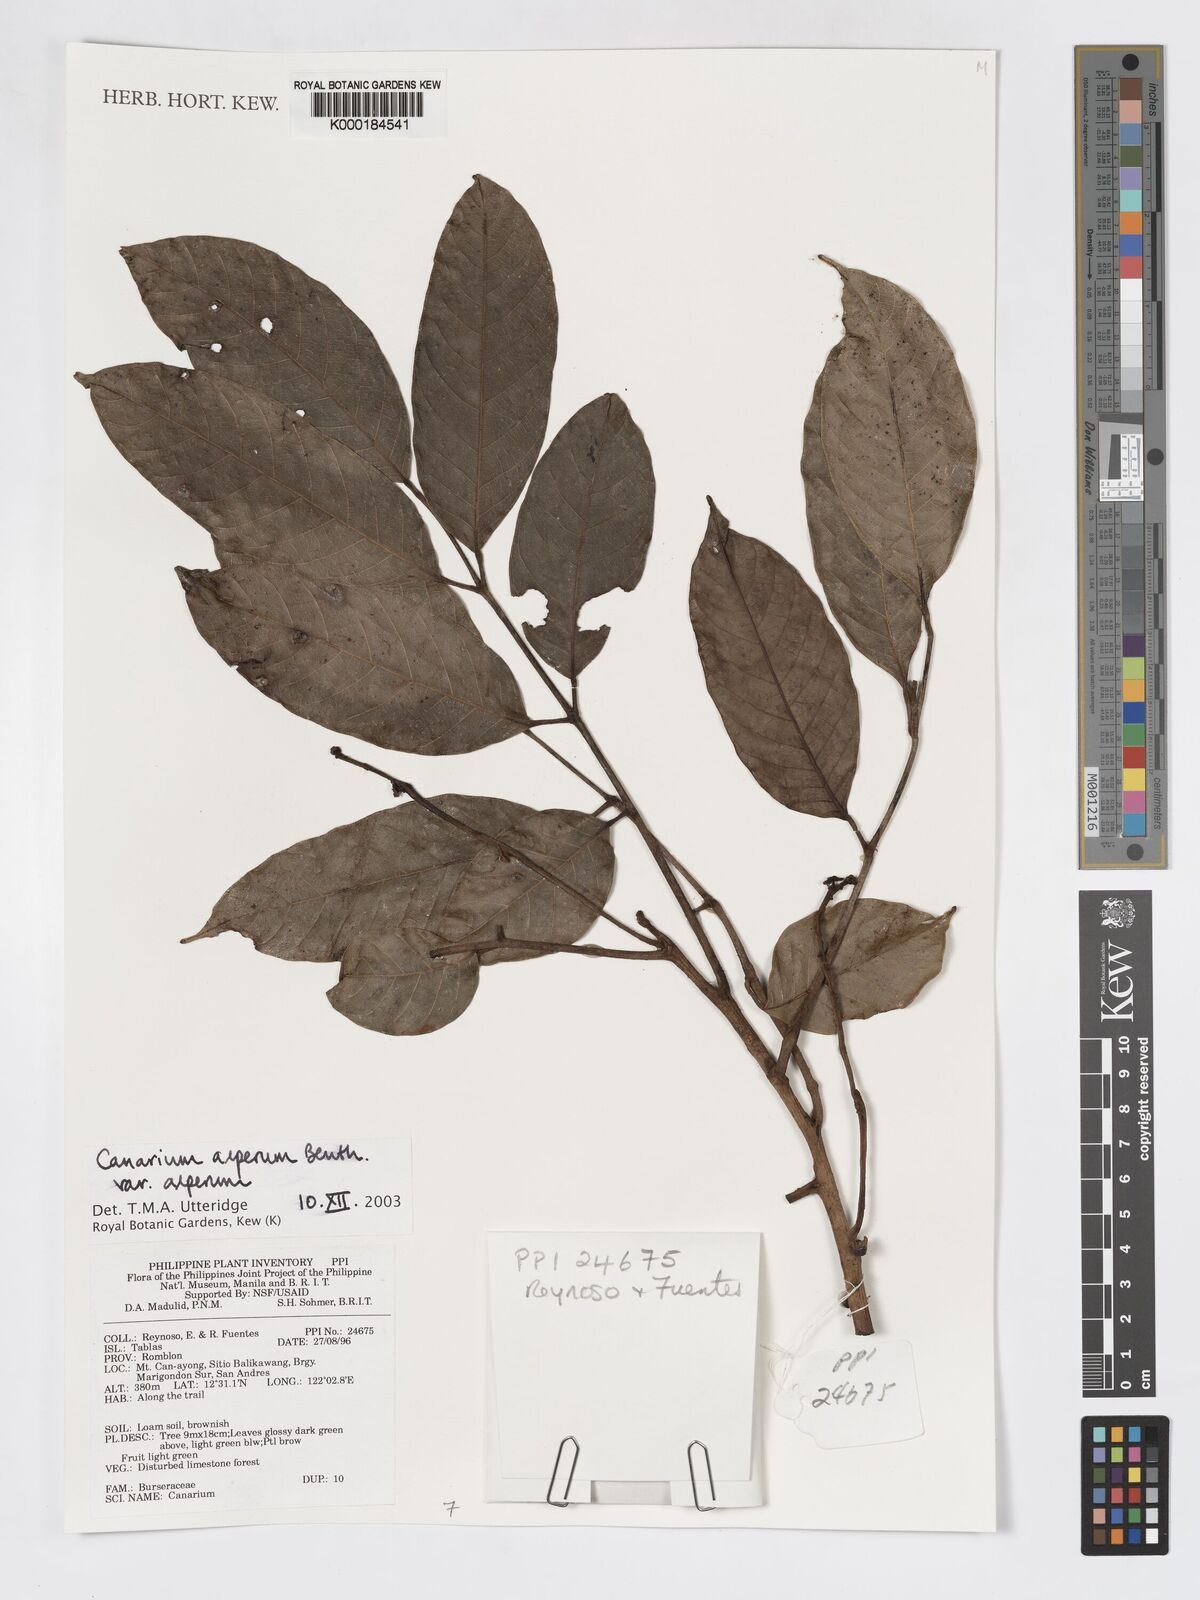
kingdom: Plantae
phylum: Tracheophyta
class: Magnoliopsida
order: Sapindales
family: Burseraceae
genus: Canarium
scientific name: Canarium asperum
